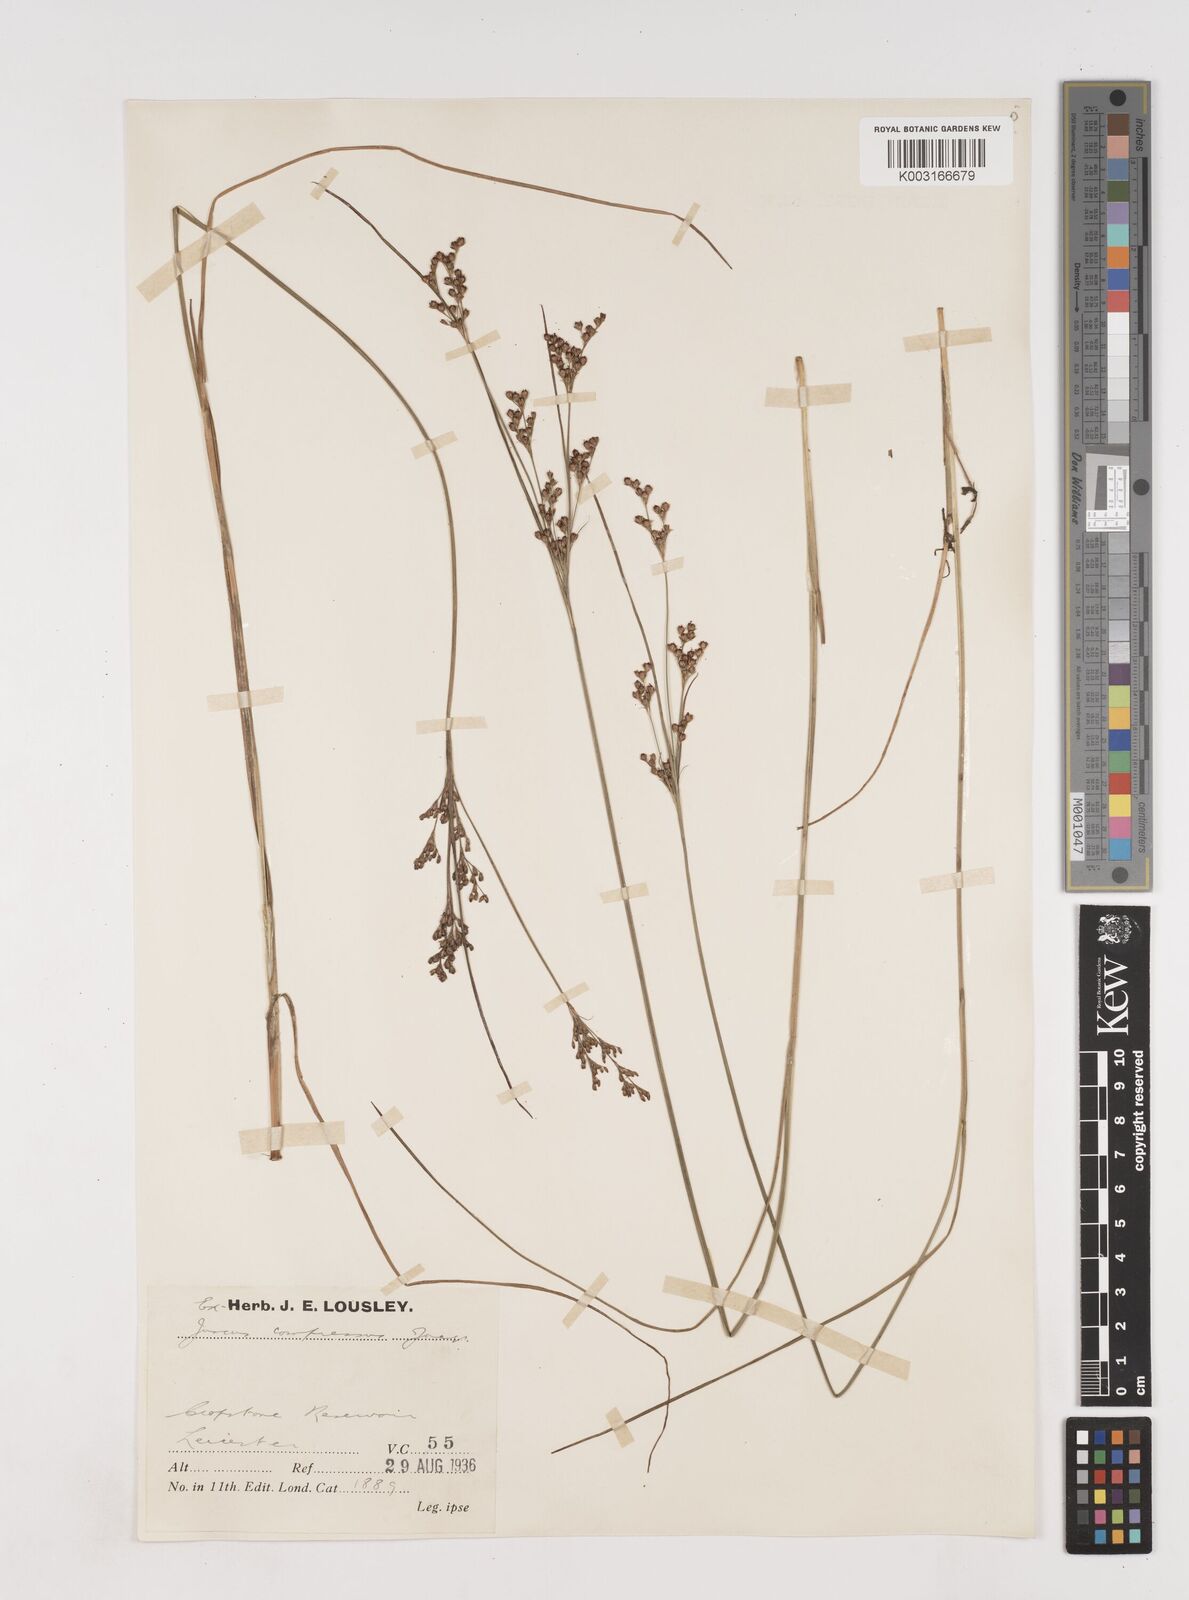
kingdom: Plantae
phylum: Tracheophyta
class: Liliopsida
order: Poales
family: Juncaceae
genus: Juncus
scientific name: Juncus compressus
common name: Round-fruited rush
